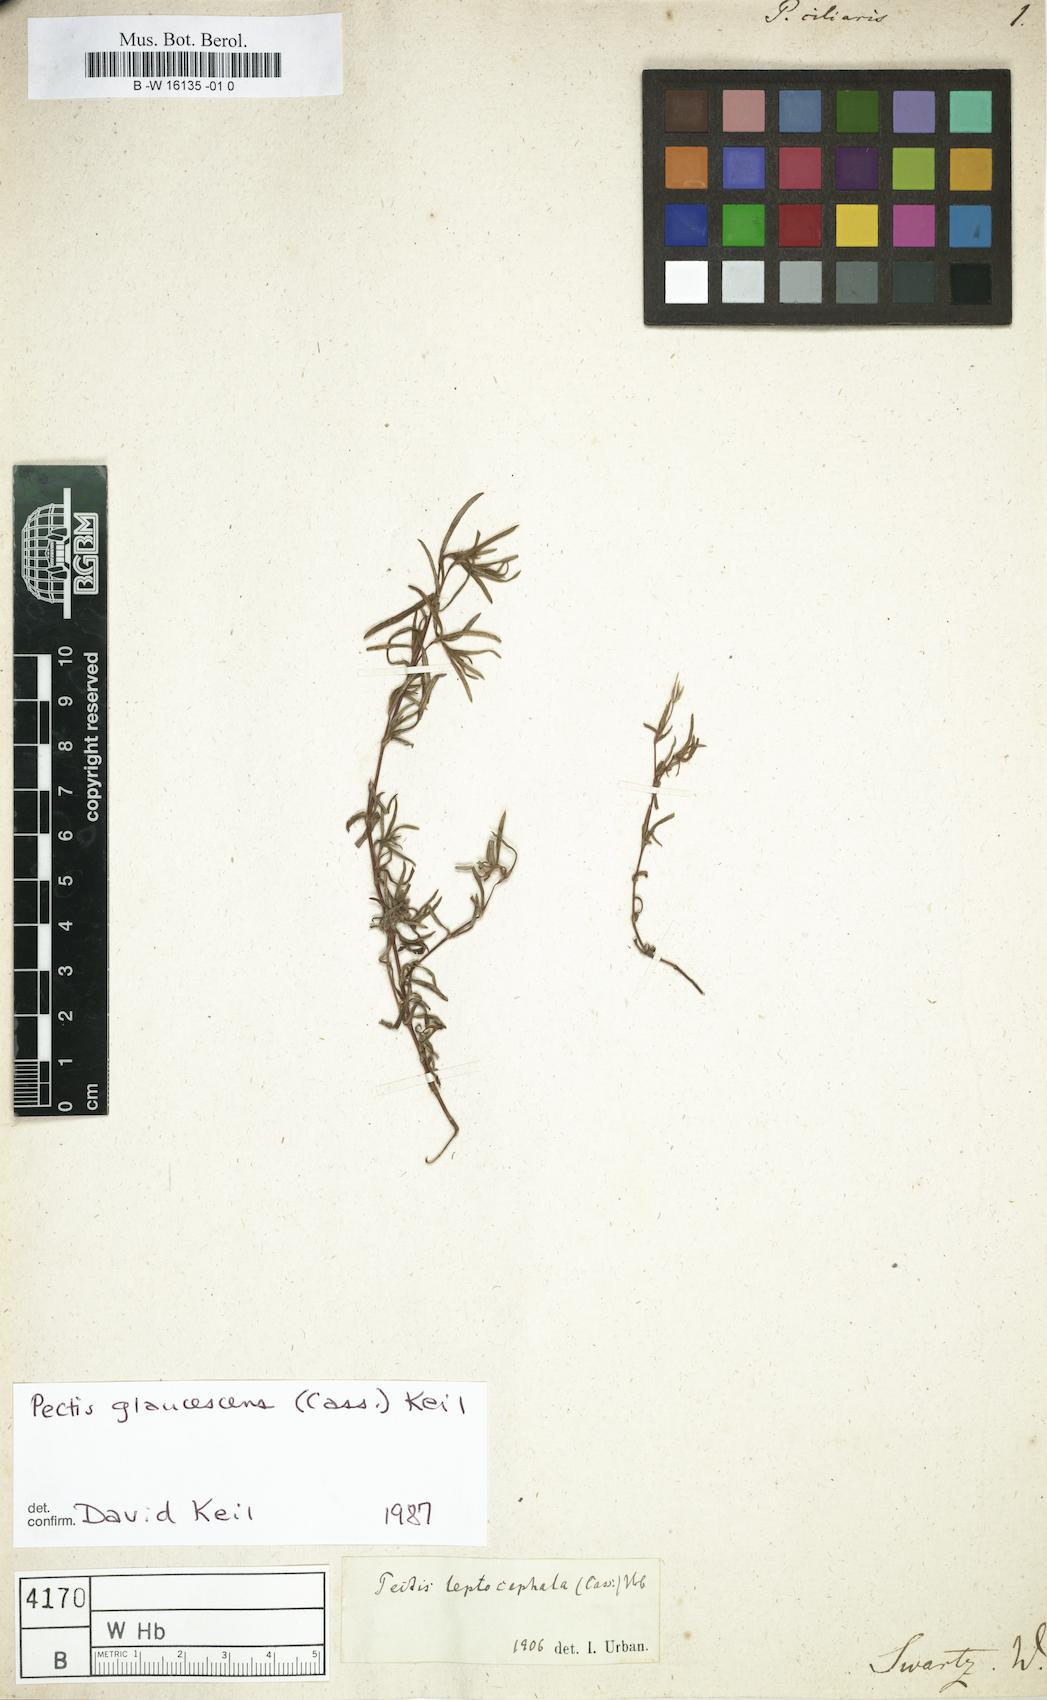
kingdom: Plantae
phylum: Tracheophyta
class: Magnoliopsida
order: Asterales
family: Asteraceae
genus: Pectis
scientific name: Pectis ciliaris
